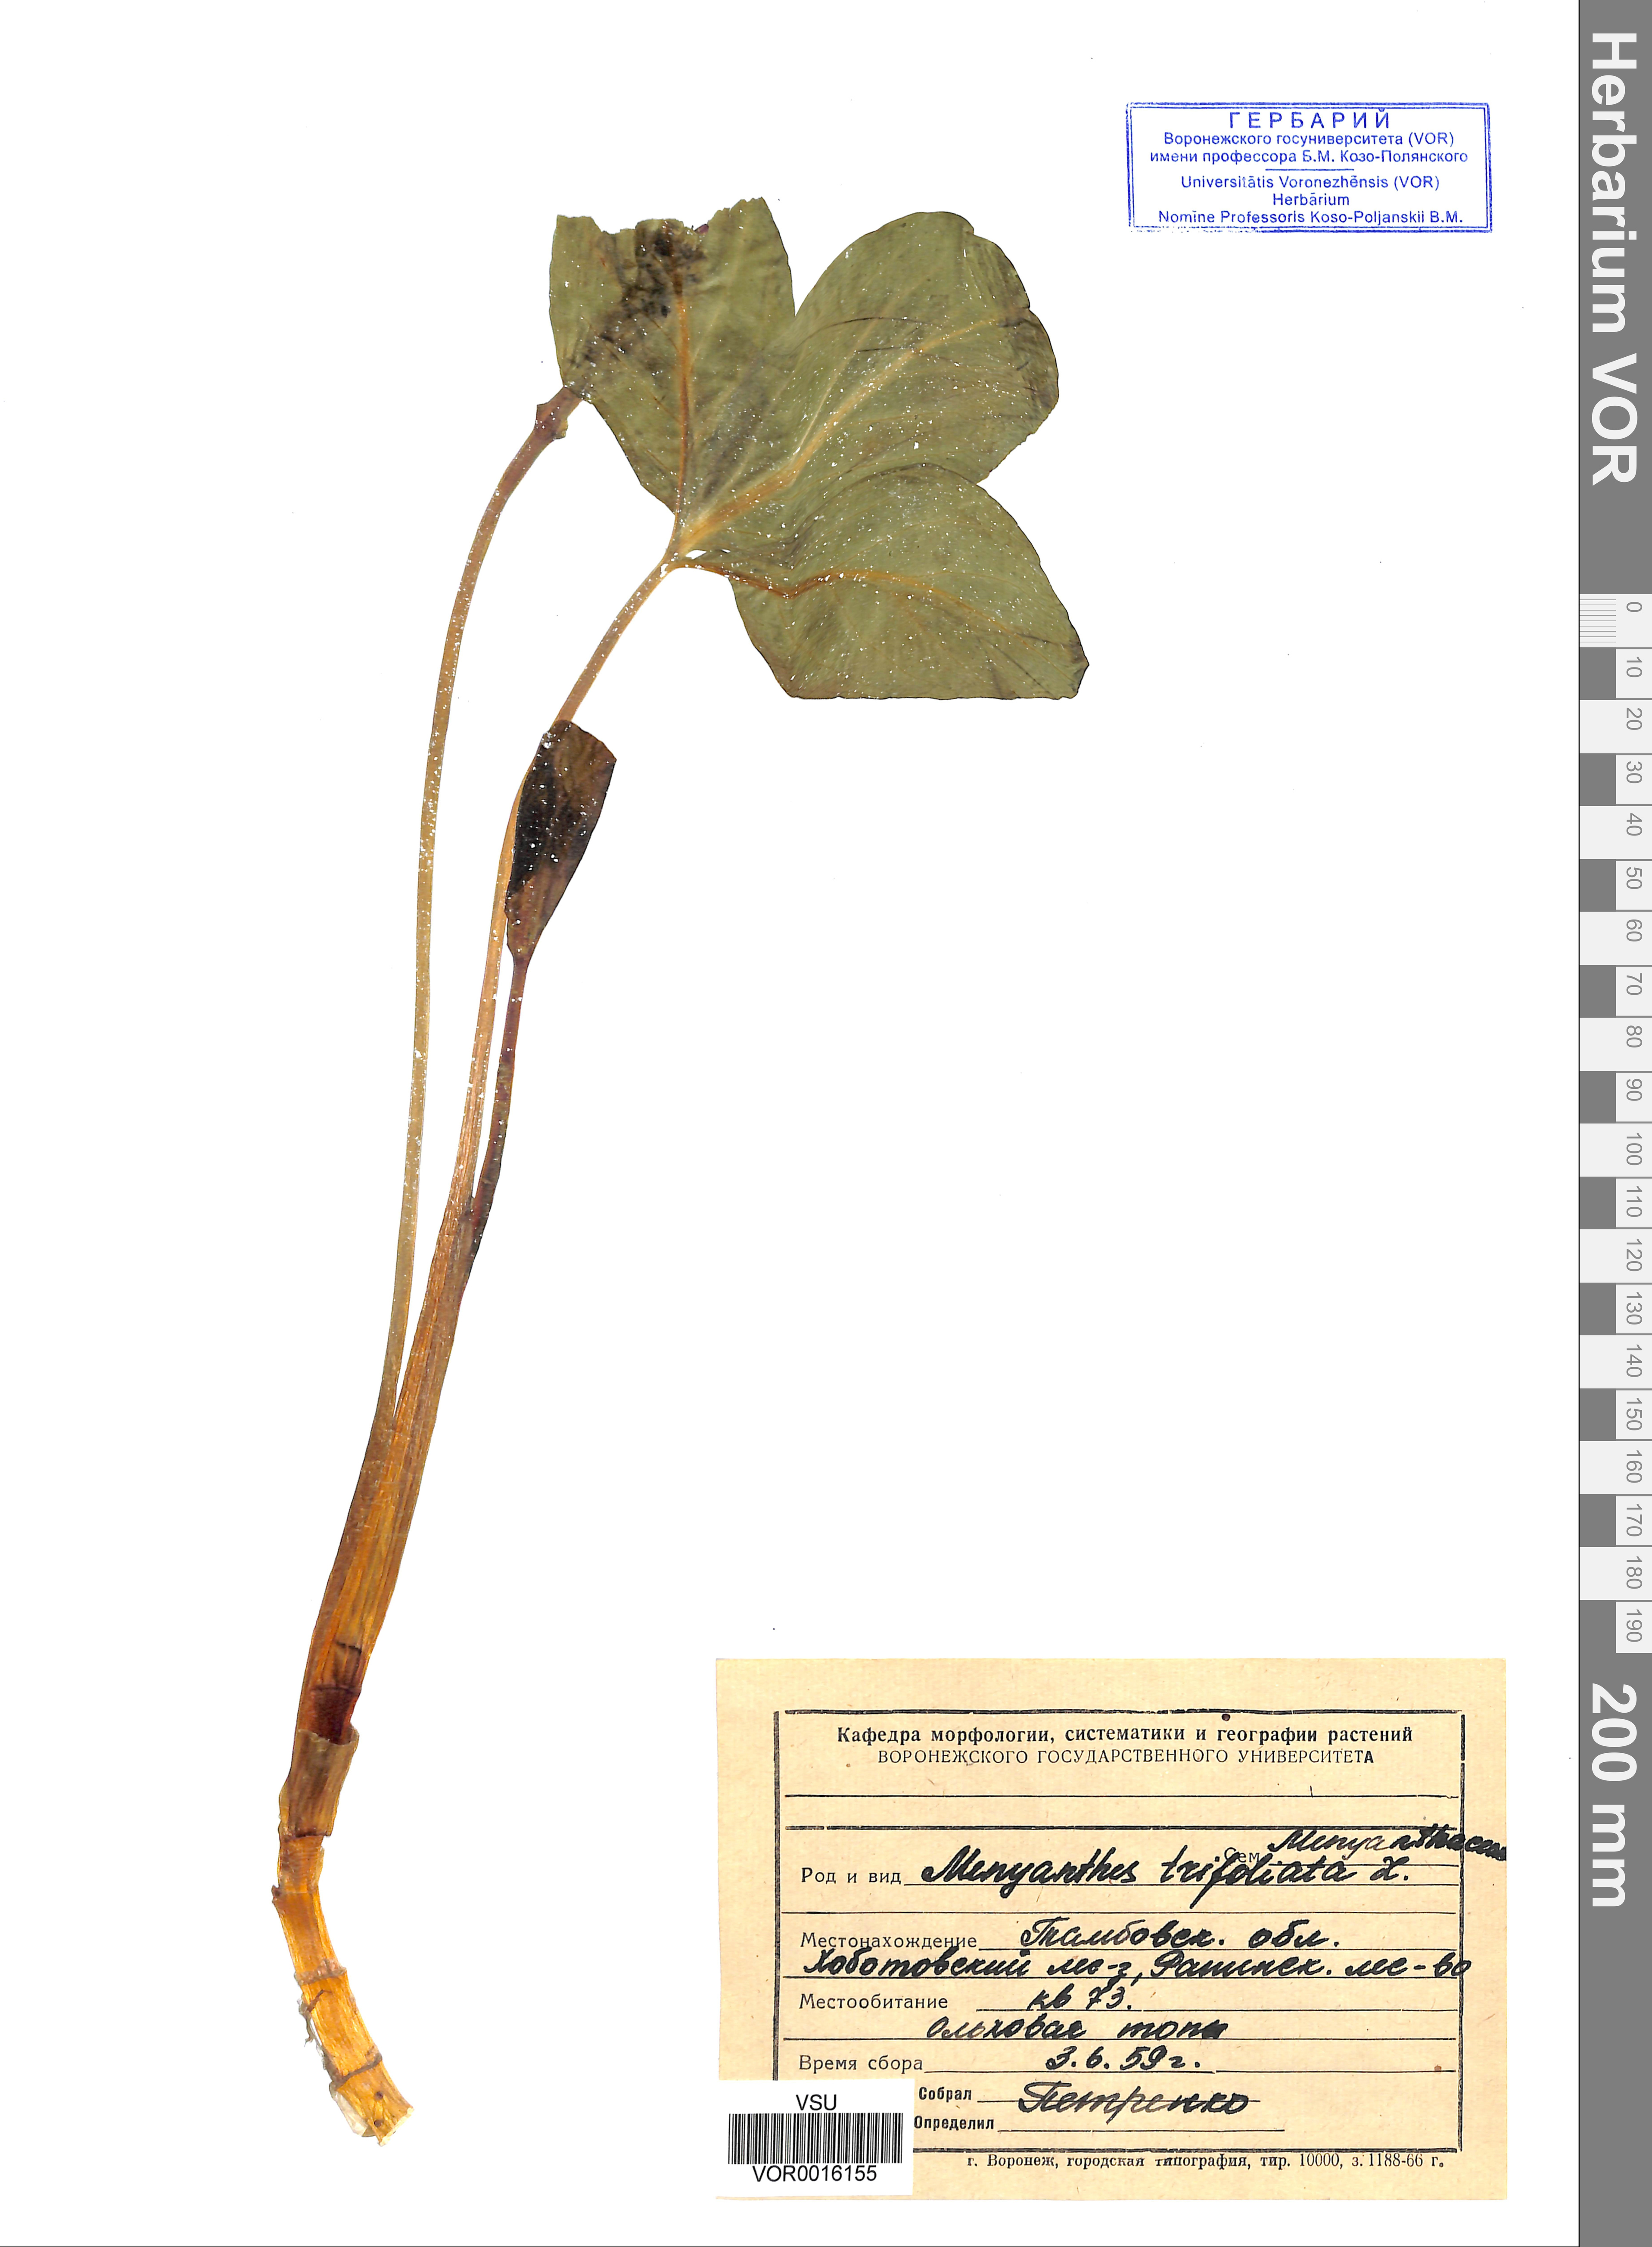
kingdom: Plantae
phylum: Tracheophyta
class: Magnoliopsida
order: Asterales
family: Menyanthaceae
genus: Menyanthes
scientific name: Menyanthes trifoliata
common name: Bogbean
